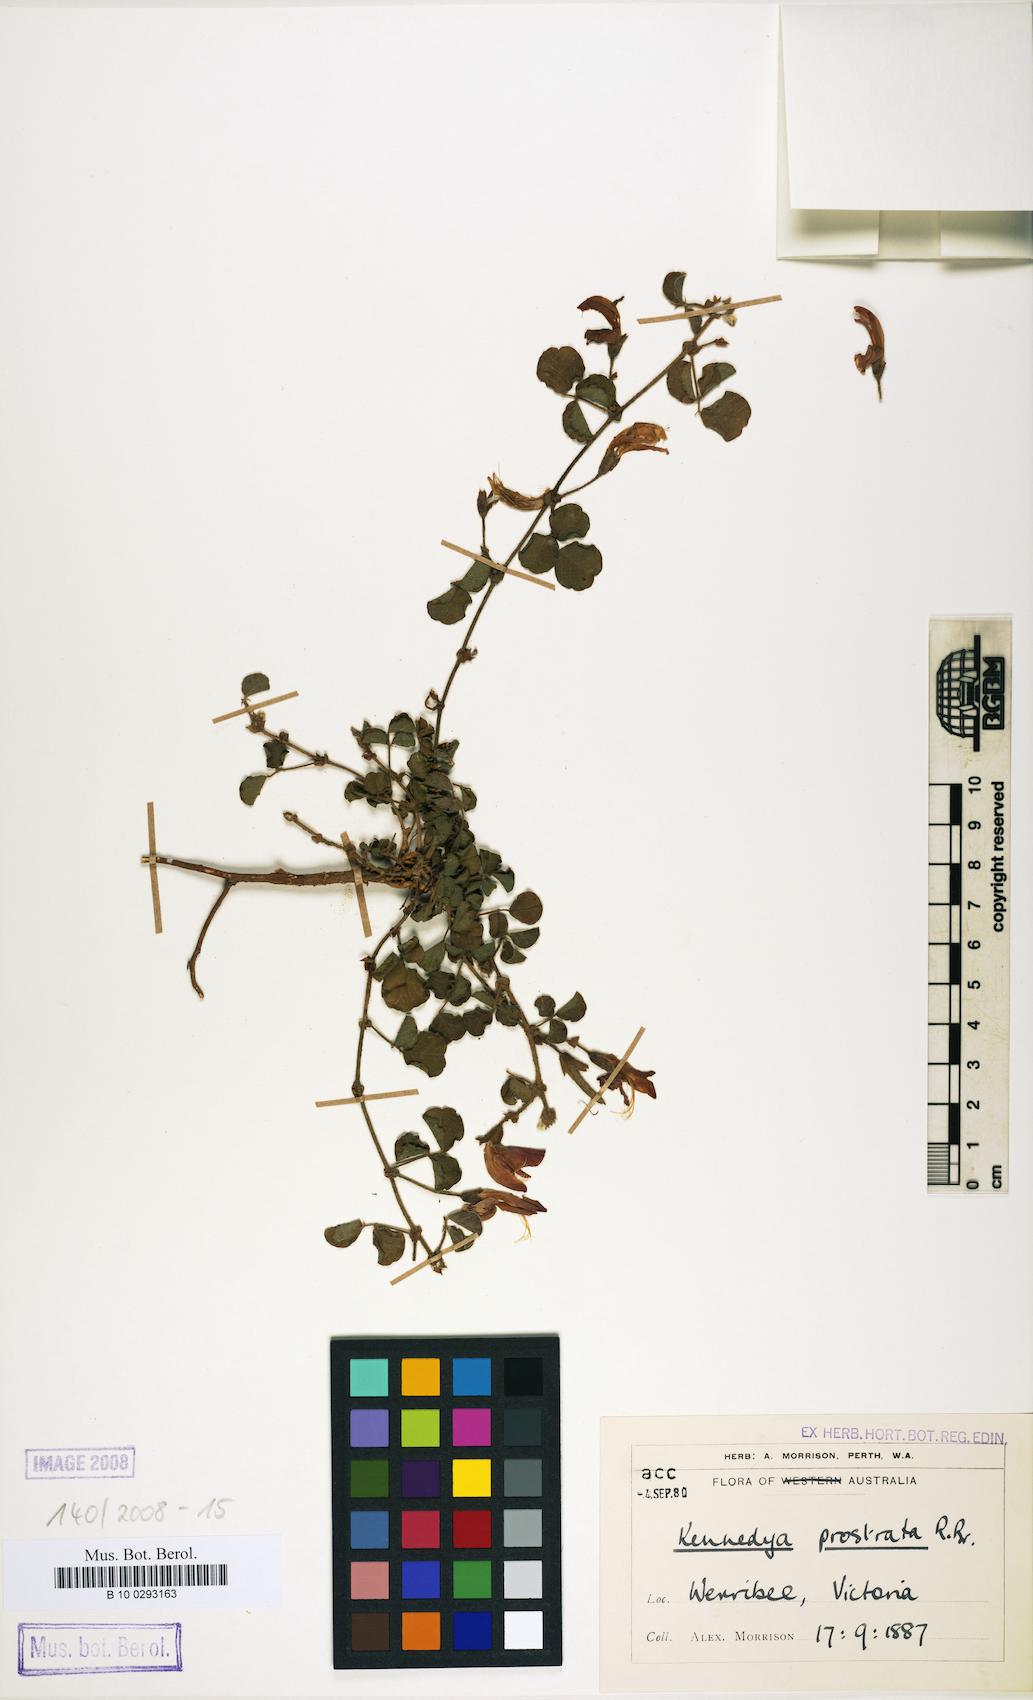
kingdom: Plantae
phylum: Tracheophyta
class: Magnoliopsida
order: Fabales
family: Fabaceae
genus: Kennedia
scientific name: Kennedia prostrata
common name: Running-postman
